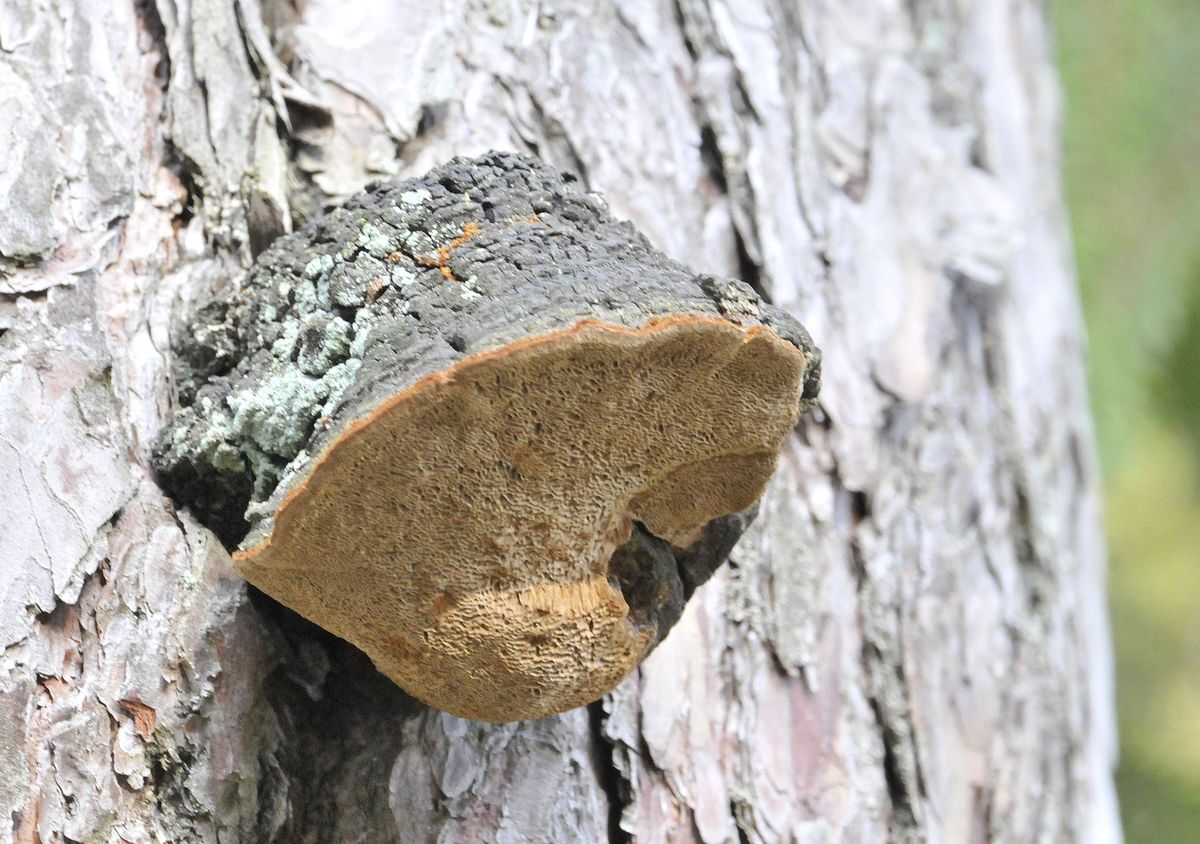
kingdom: Fungi
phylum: Basidiomycota
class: Agaricomycetes
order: Hymenochaetales
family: Hymenochaetaceae
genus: Porodaedalea
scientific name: Porodaedalea pini
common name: fyrre-ildporesvamp
